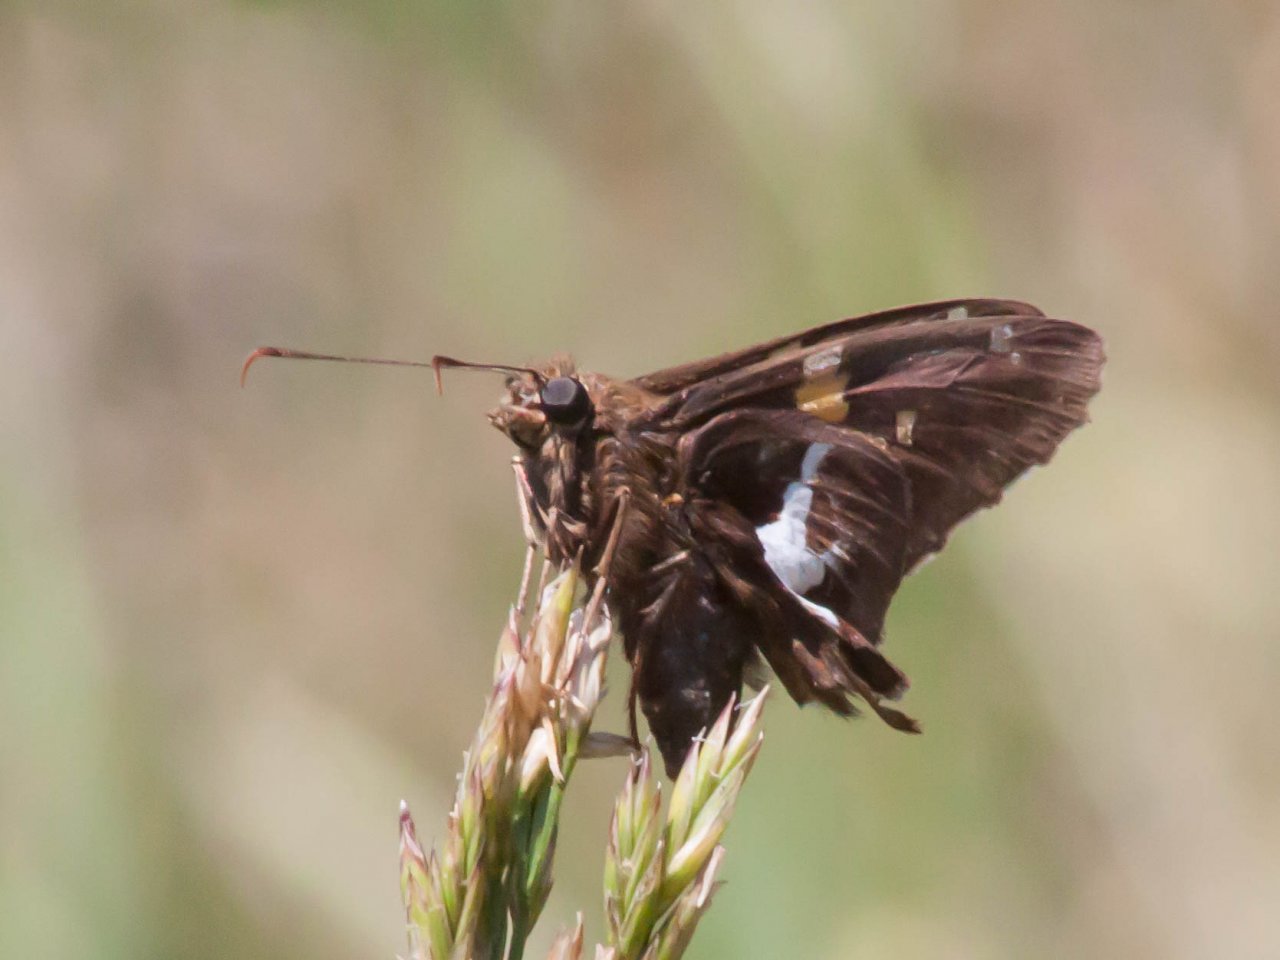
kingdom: Animalia
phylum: Arthropoda
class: Insecta
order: Lepidoptera
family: Hesperiidae
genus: Epargyreus
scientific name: Epargyreus clarus
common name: Silver-spotted Skipper
